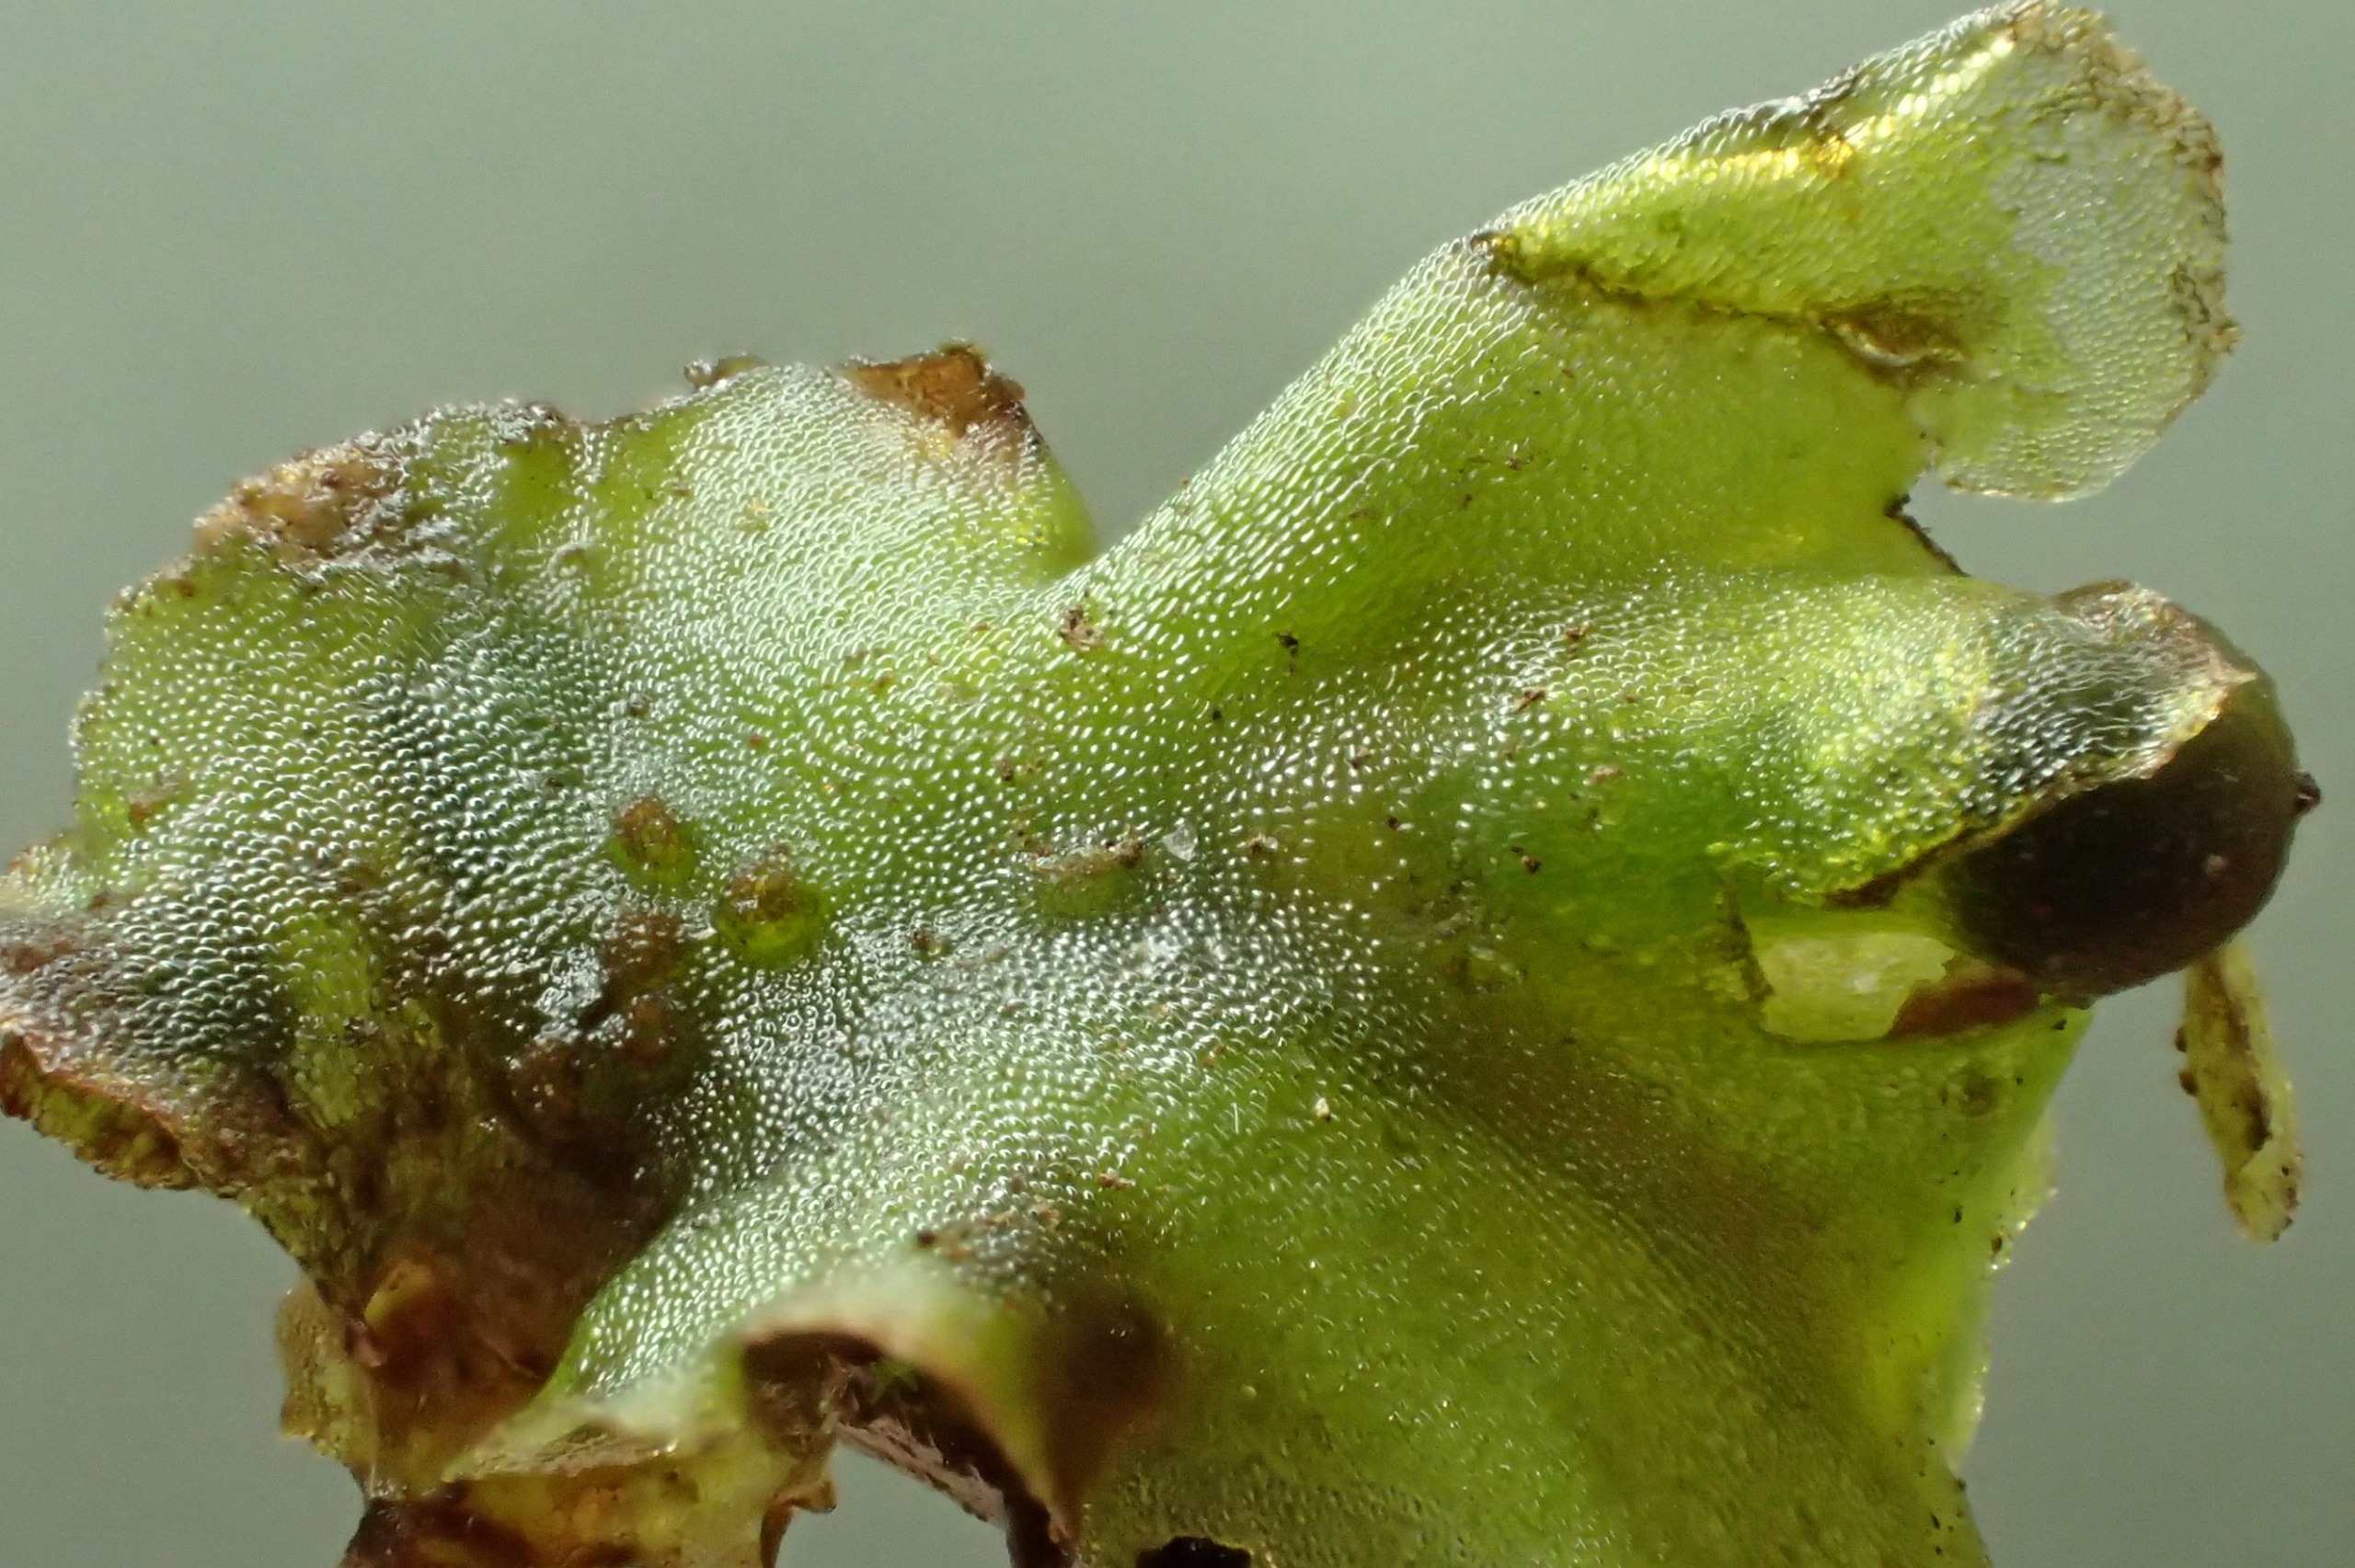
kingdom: Plantae
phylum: Marchantiophyta
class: Jungermanniopsida
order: Pelliales
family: Pelliaceae
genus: Pellia
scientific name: Pellia epiphylla
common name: Enbo ribbeløv
